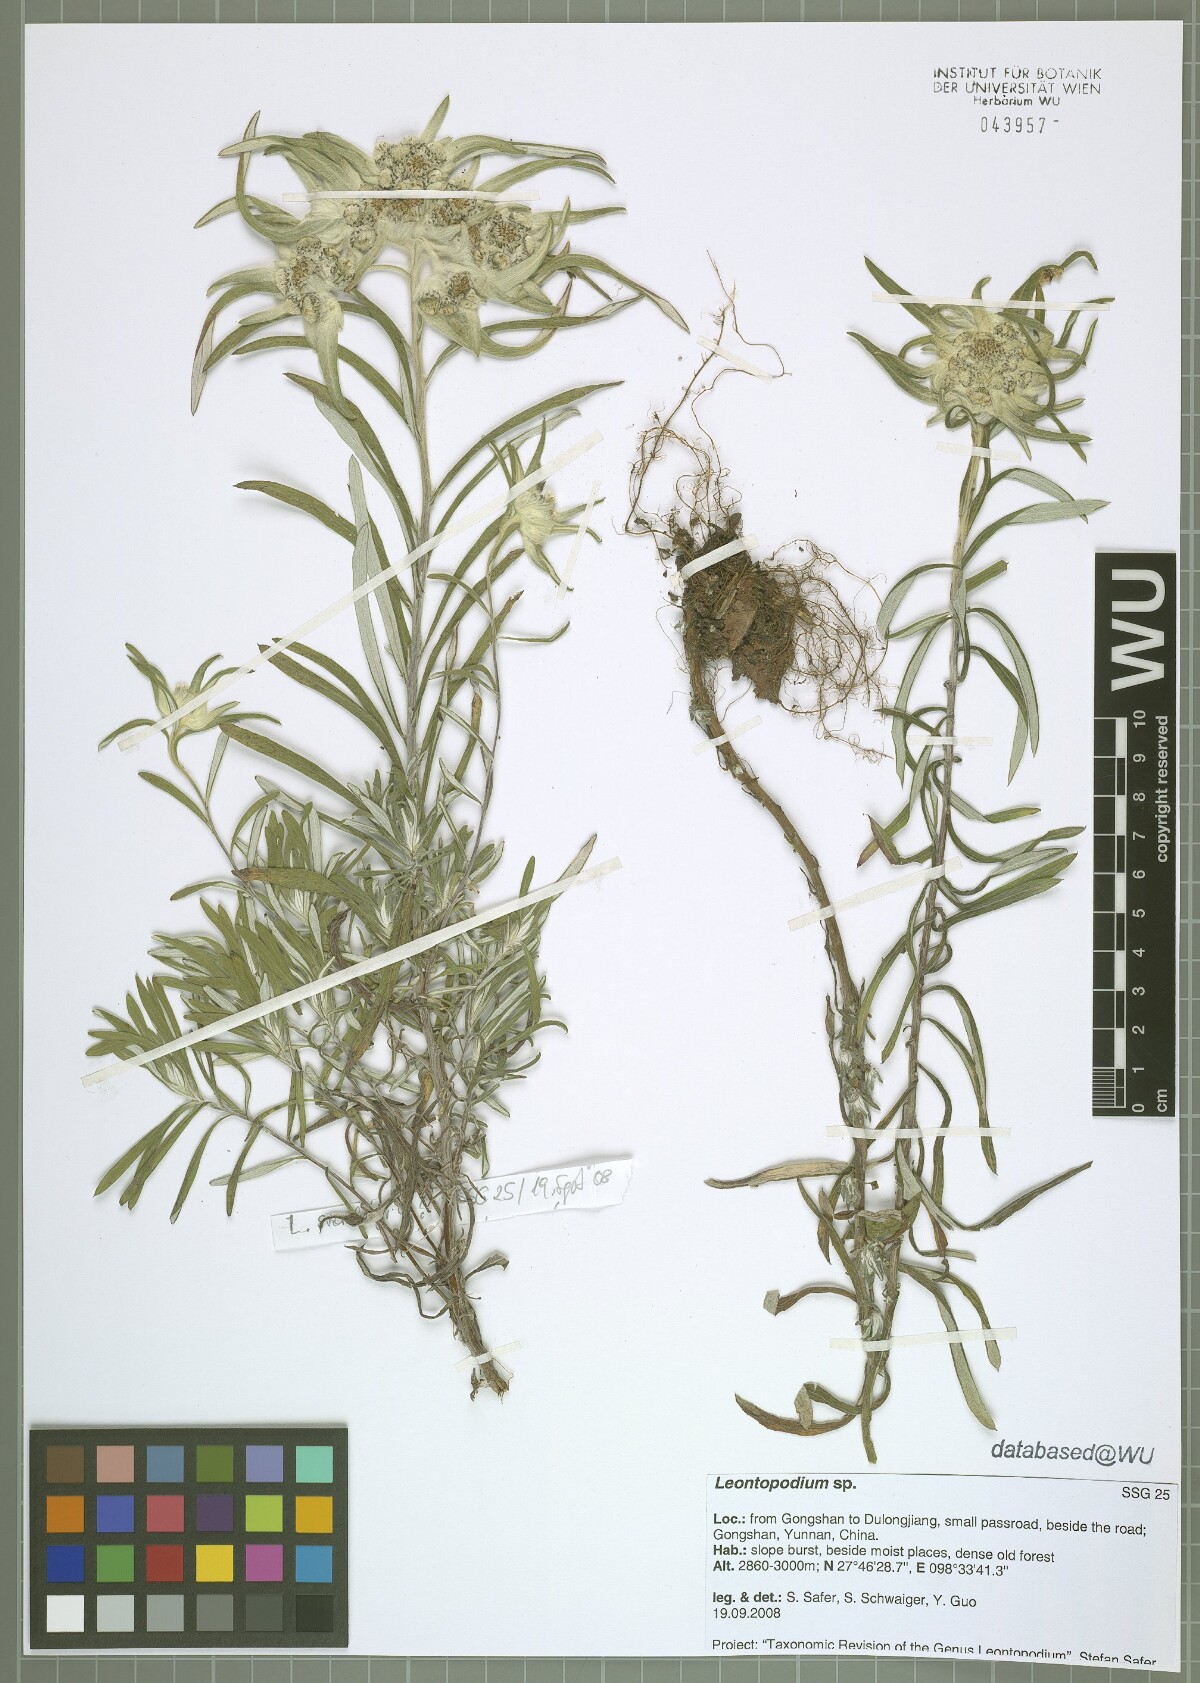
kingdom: Plantae
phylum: Tracheophyta
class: Magnoliopsida
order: Asterales
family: Asteraceae
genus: Leontopodium
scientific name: Leontopodium
